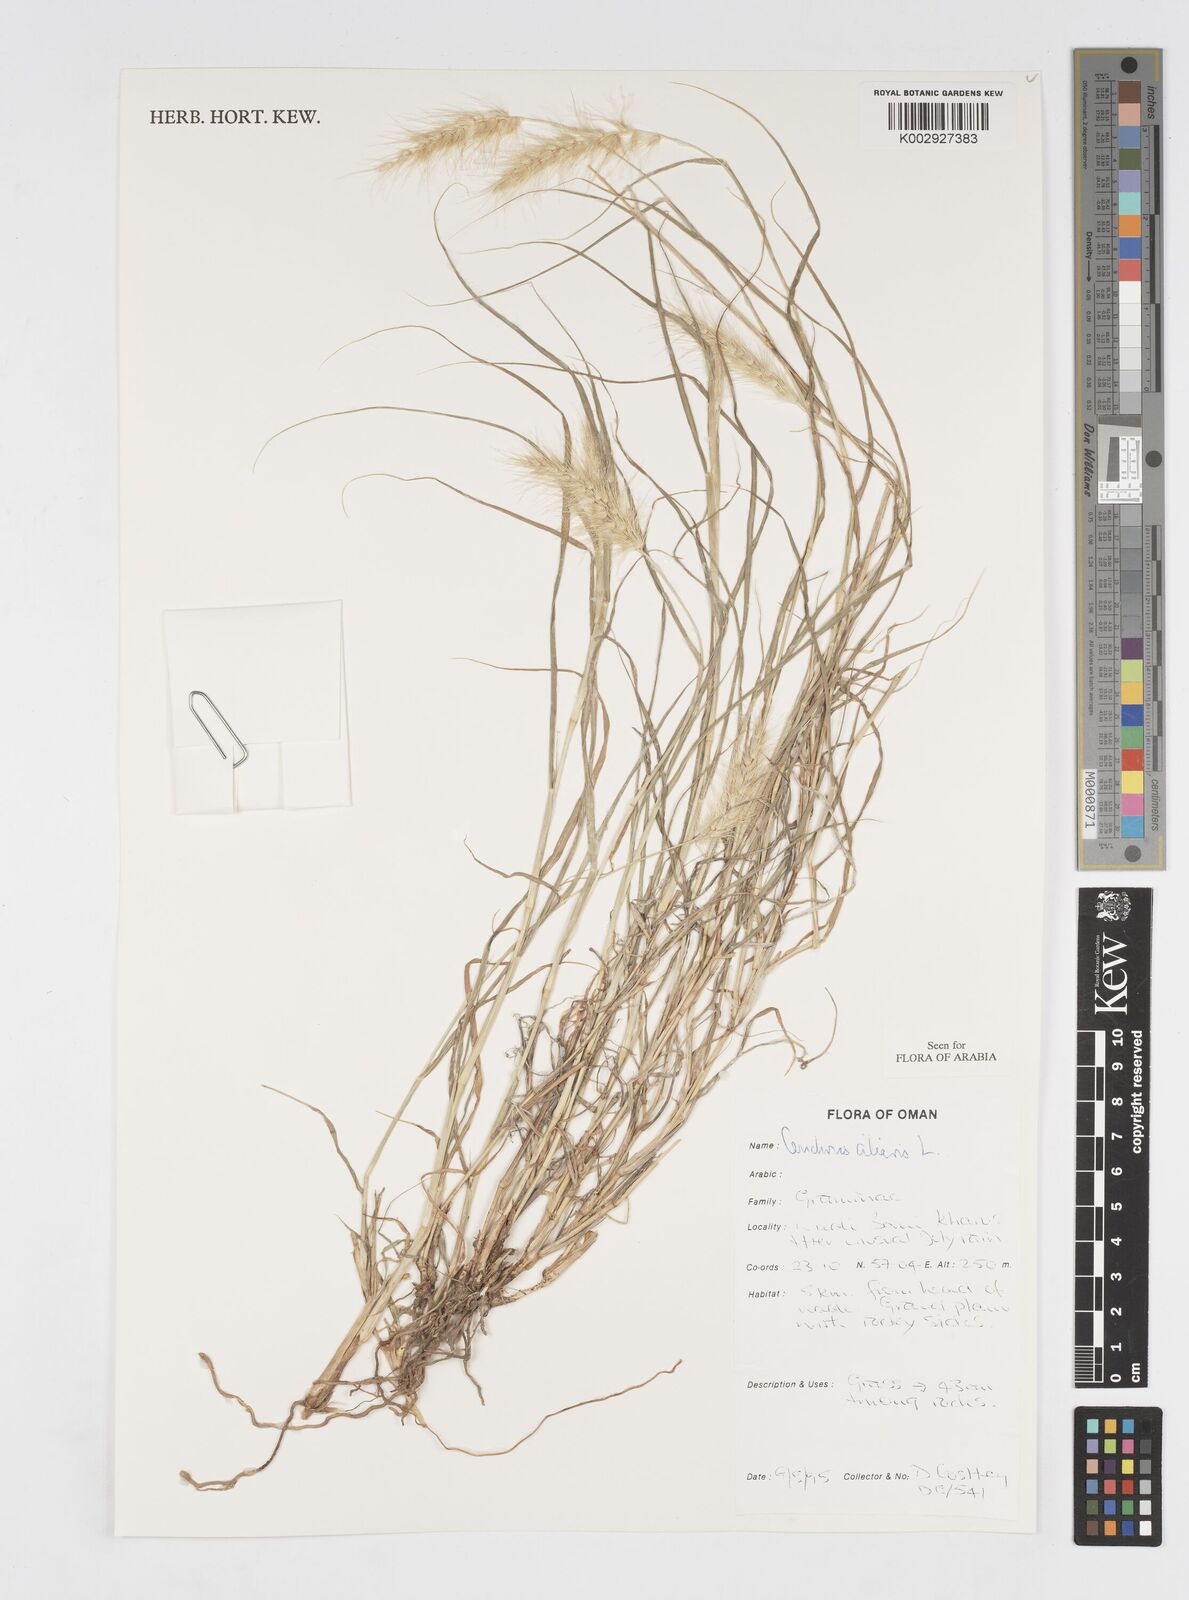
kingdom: Plantae
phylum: Tracheophyta
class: Liliopsida
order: Poales
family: Poaceae
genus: Cenchrus
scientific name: Cenchrus ciliaris
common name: Buffelgrass
